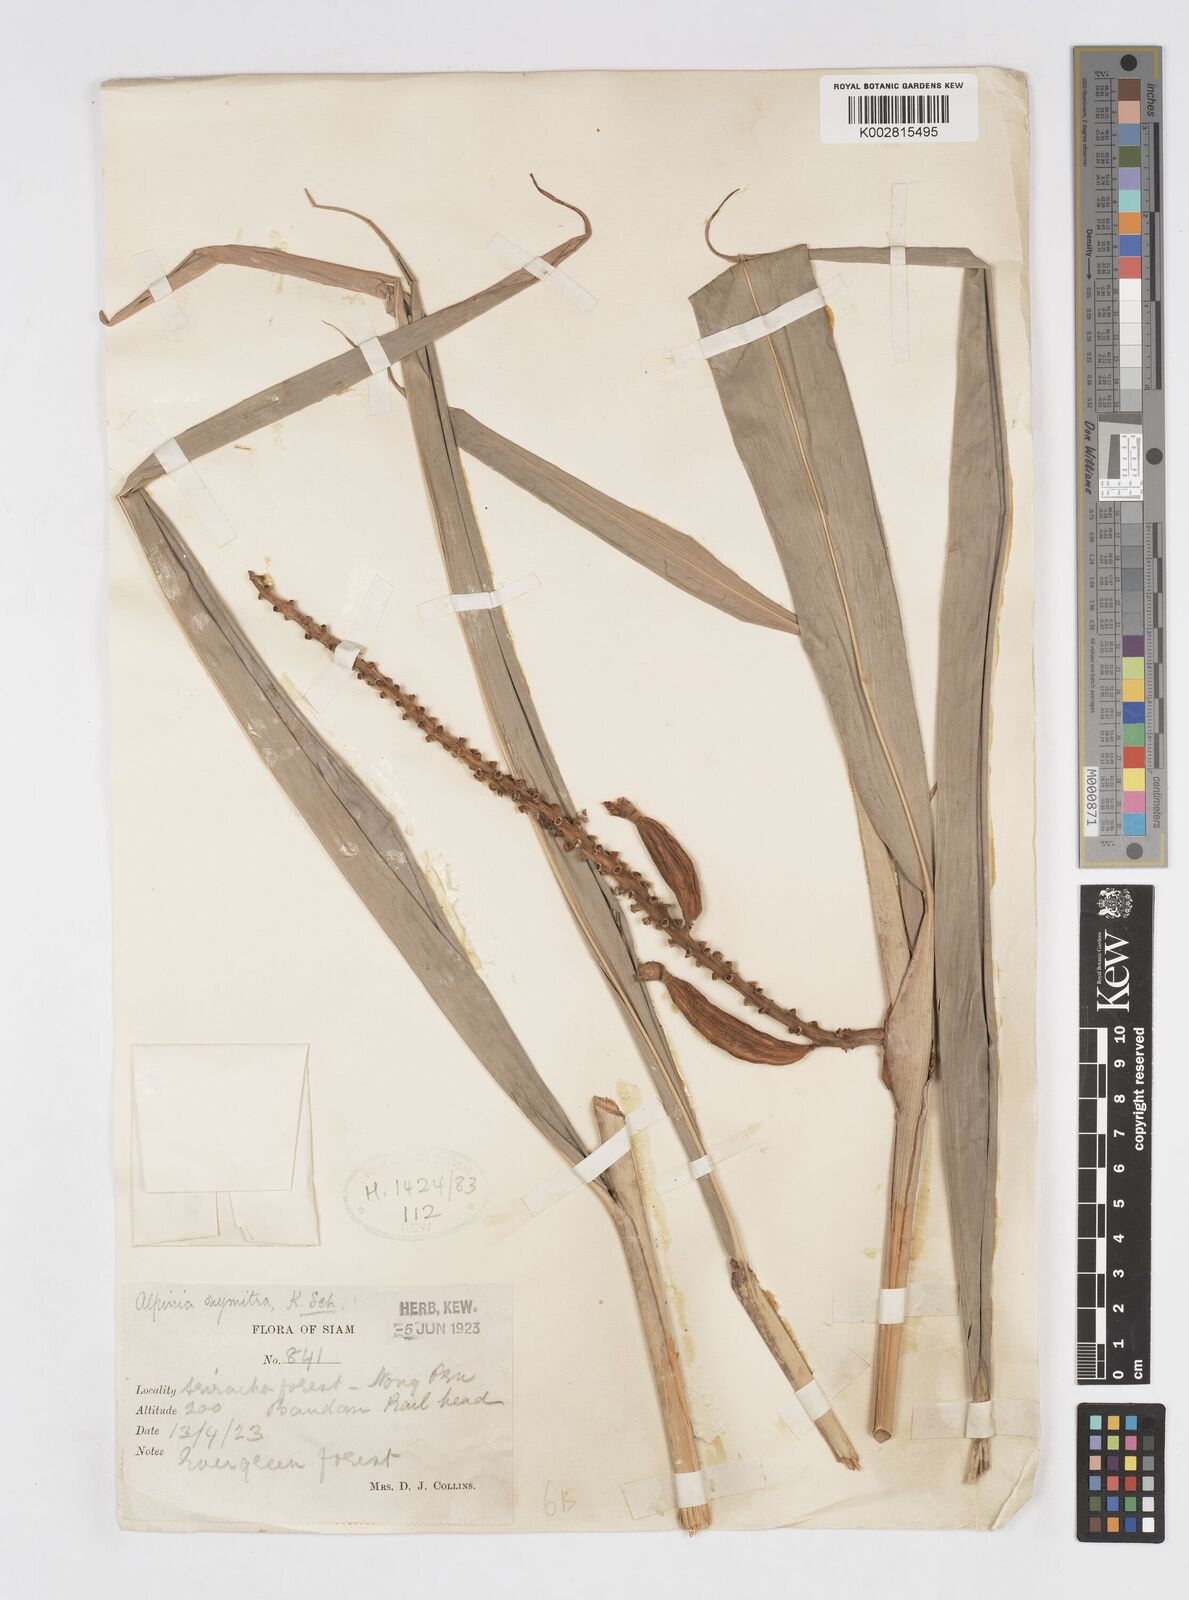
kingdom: Plantae
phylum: Tracheophyta
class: Liliopsida
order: Zingiberales
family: Zingiberaceae
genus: Alpinia
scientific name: Alpinia oxymitra
